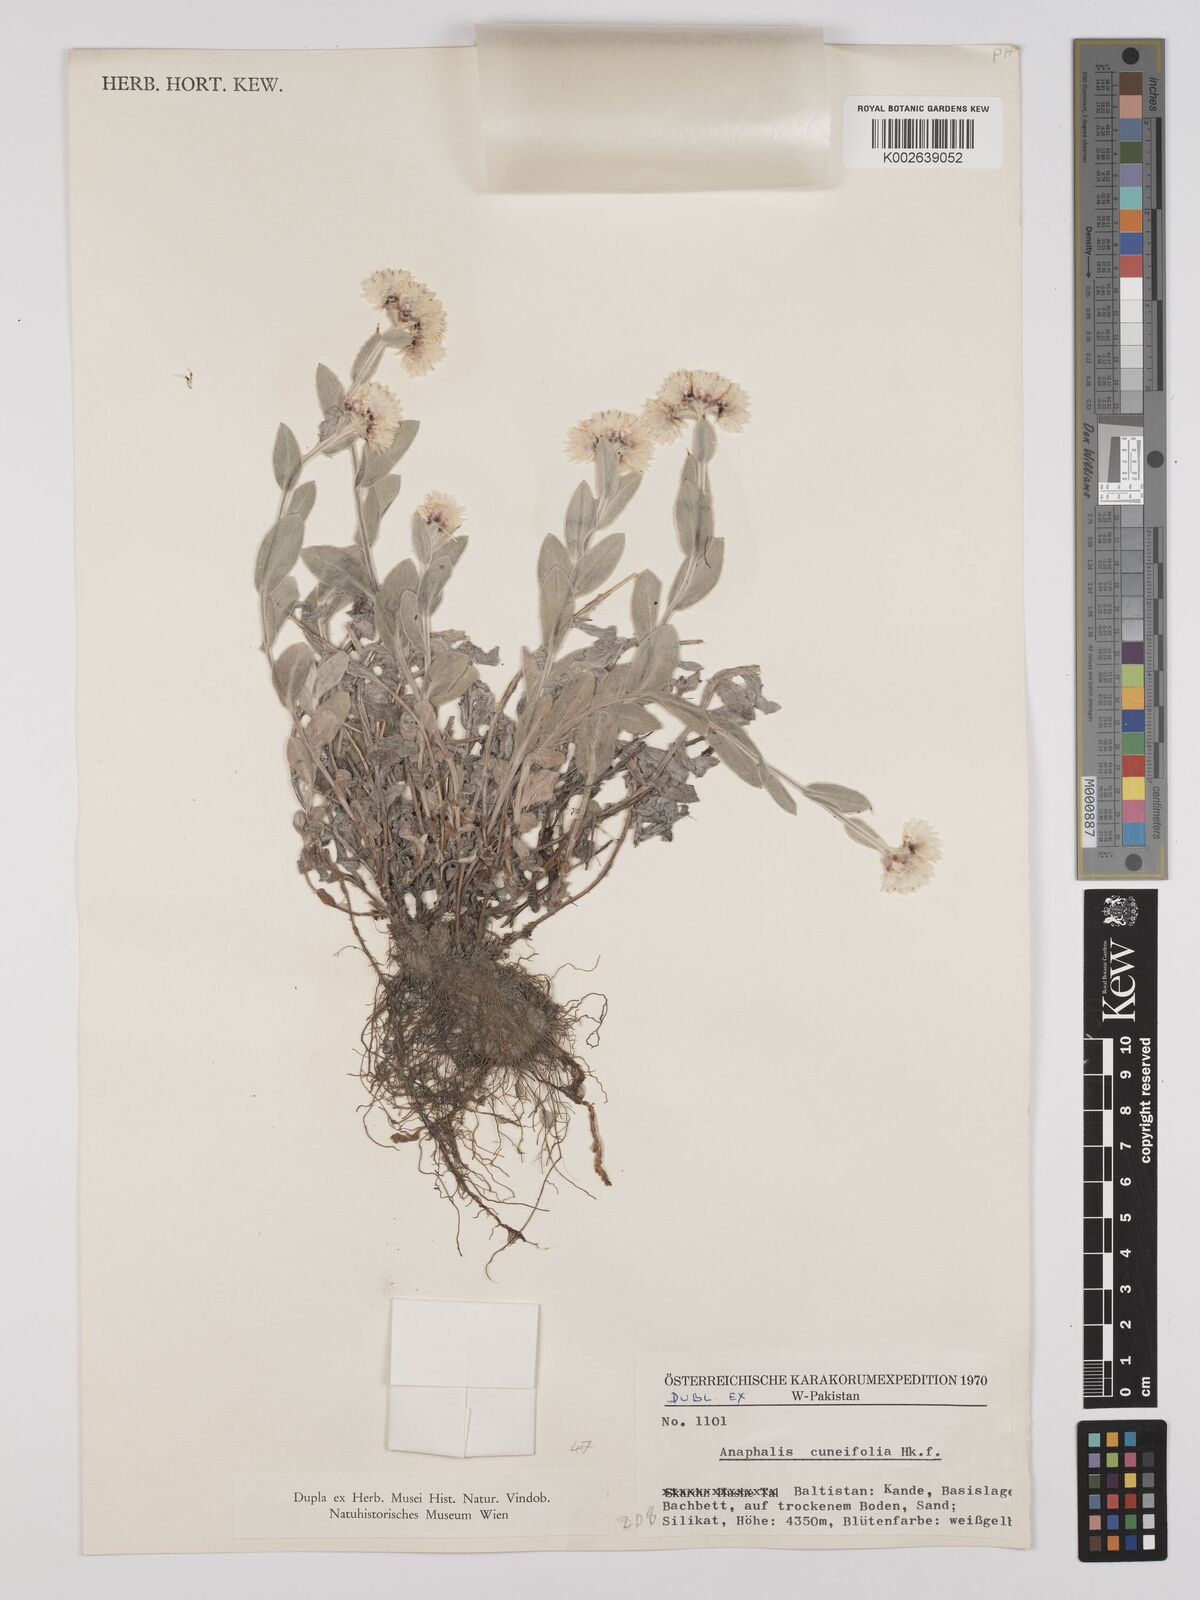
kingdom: Plantae
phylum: Tracheophyta
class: Magnoliopsida
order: Asterales
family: Asteraceae
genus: Anaphalis
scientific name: Anaphalis nepalensis
